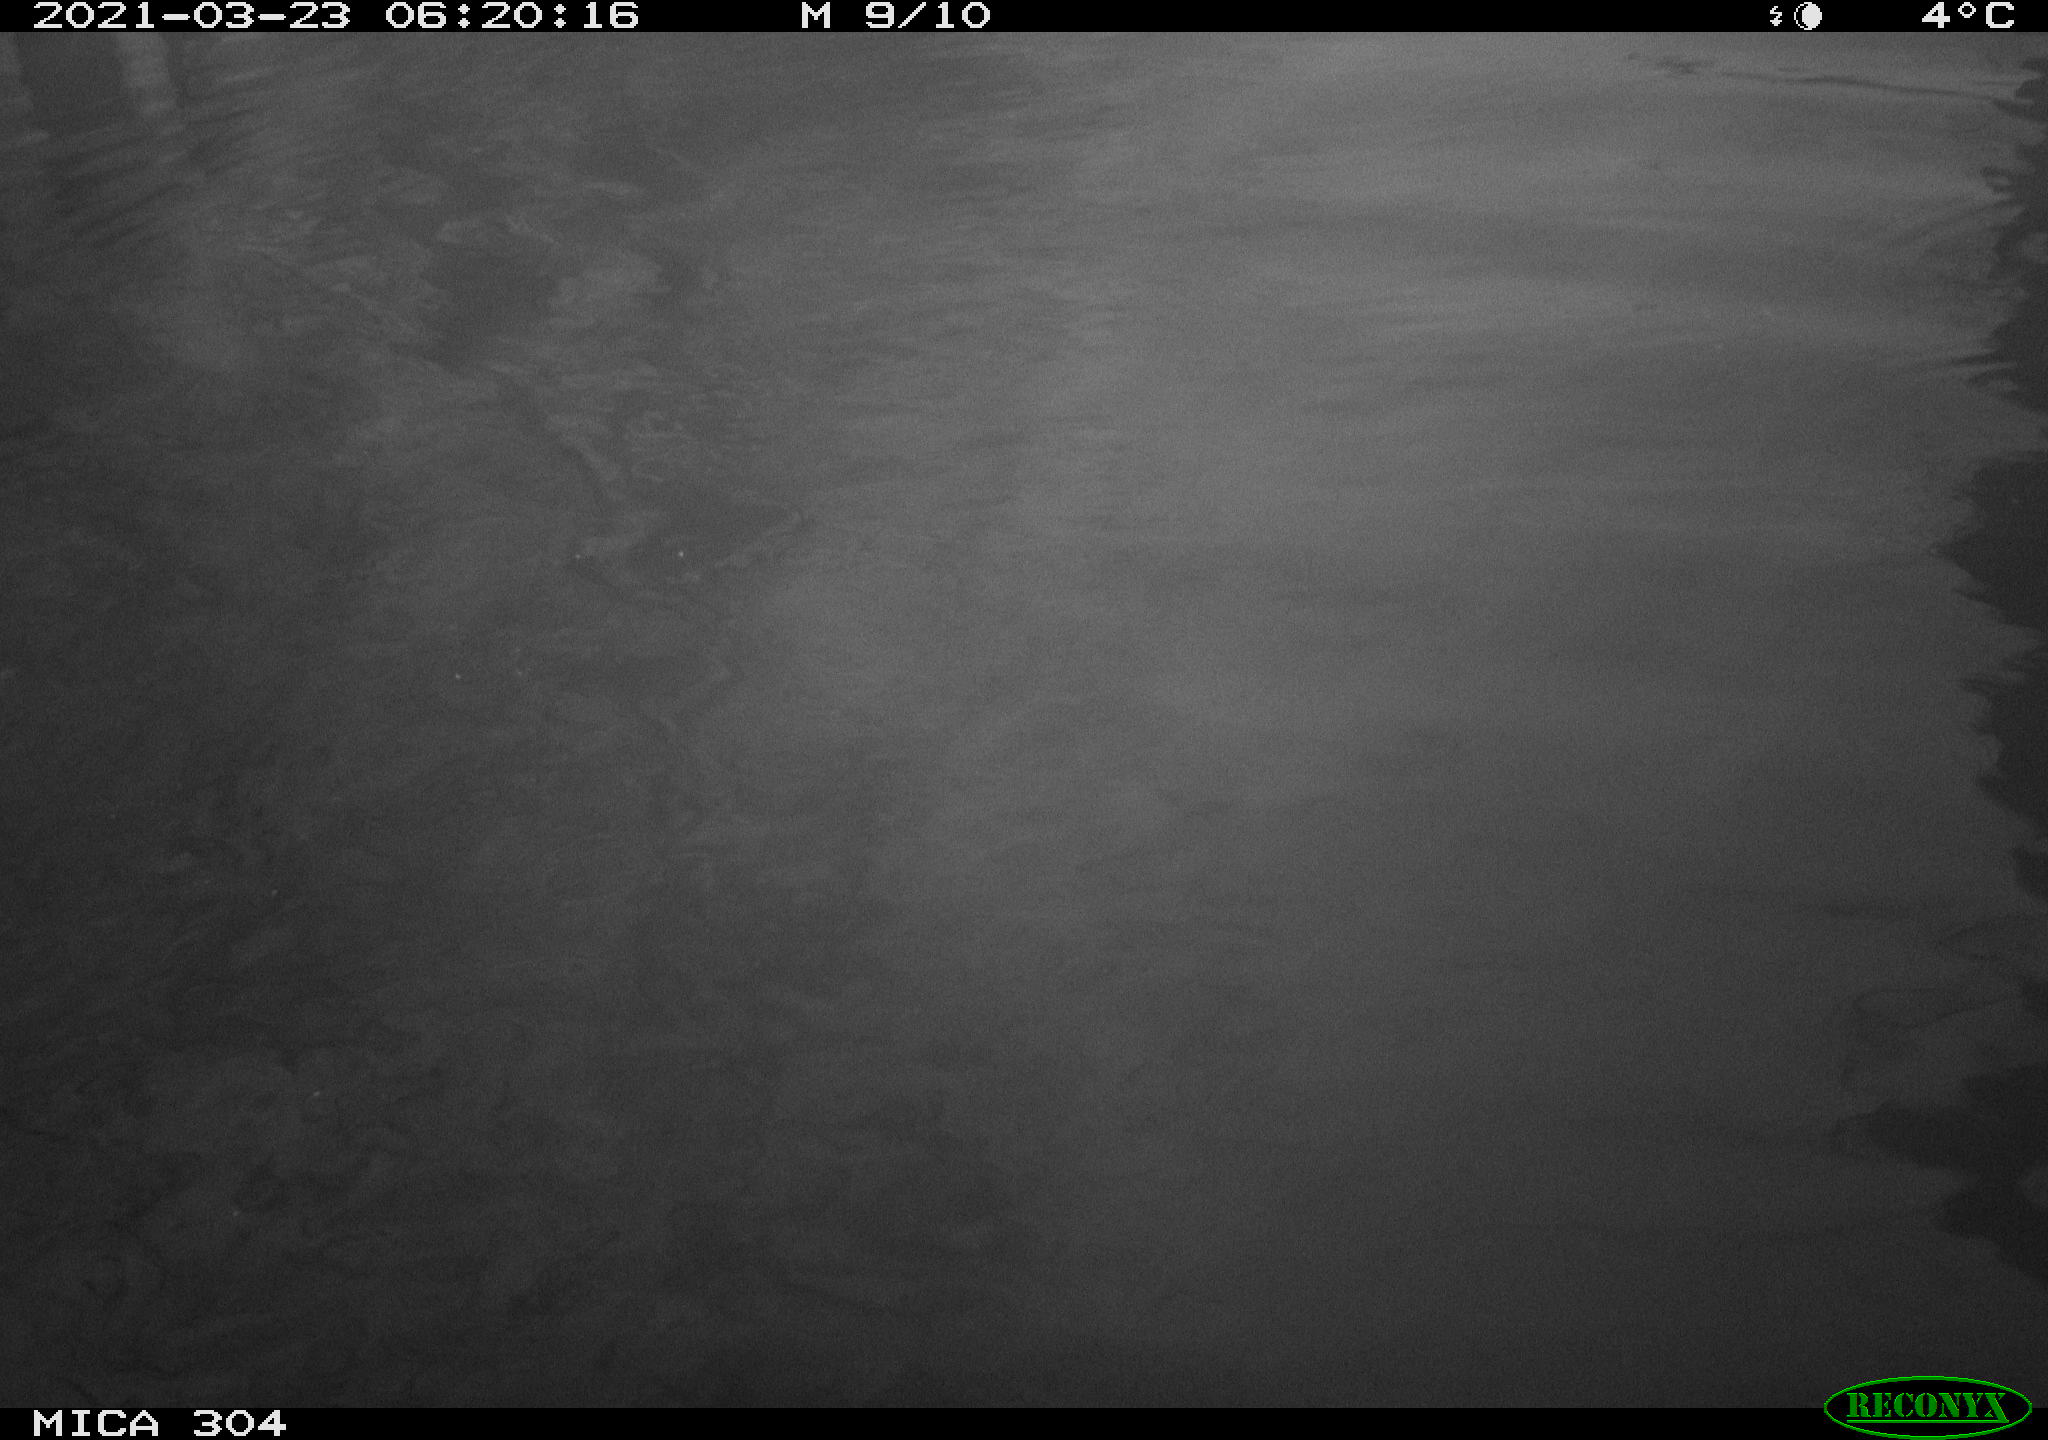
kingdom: Animalia
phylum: Chordata
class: Aves
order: Anseriformes
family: Anatidae
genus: Anas
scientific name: Anas platyrhynchos
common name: Mallard
